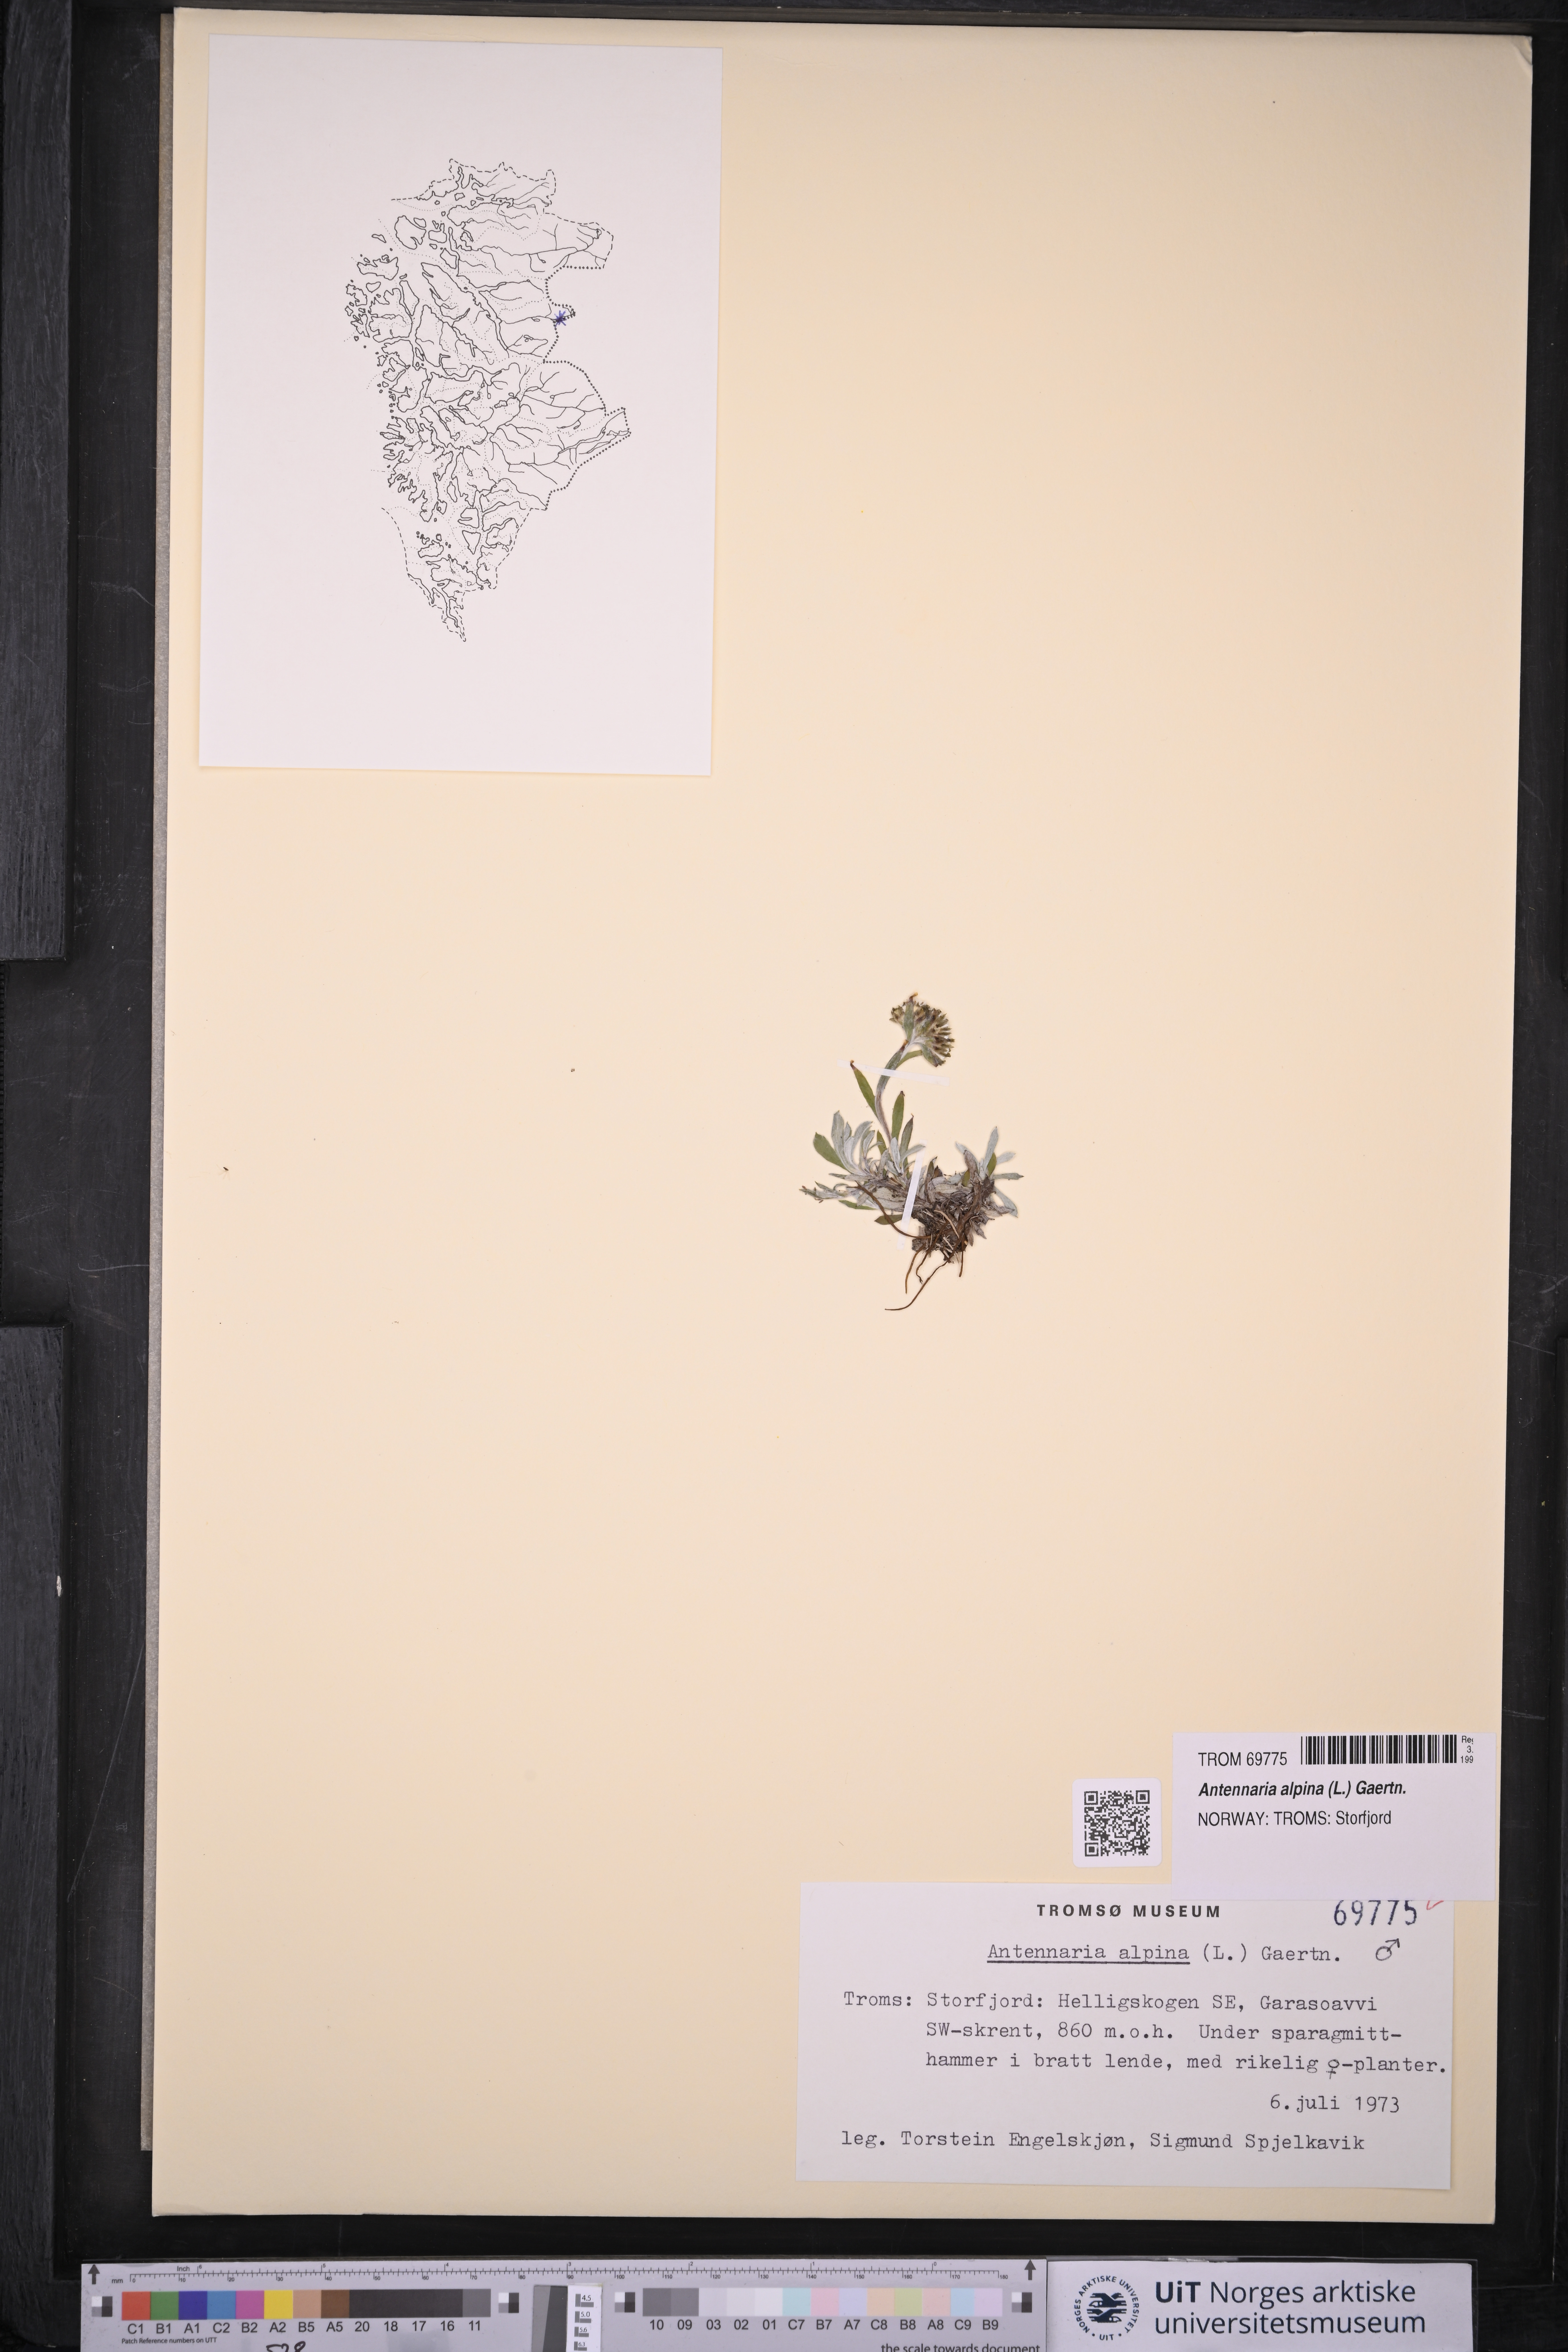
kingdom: Plantae
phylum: Tracheophyta
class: Magnoliopsida
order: Asterales
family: Asteraceae
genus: Antennaria
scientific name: Antennaria alpina
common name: Alpine pussytoes
